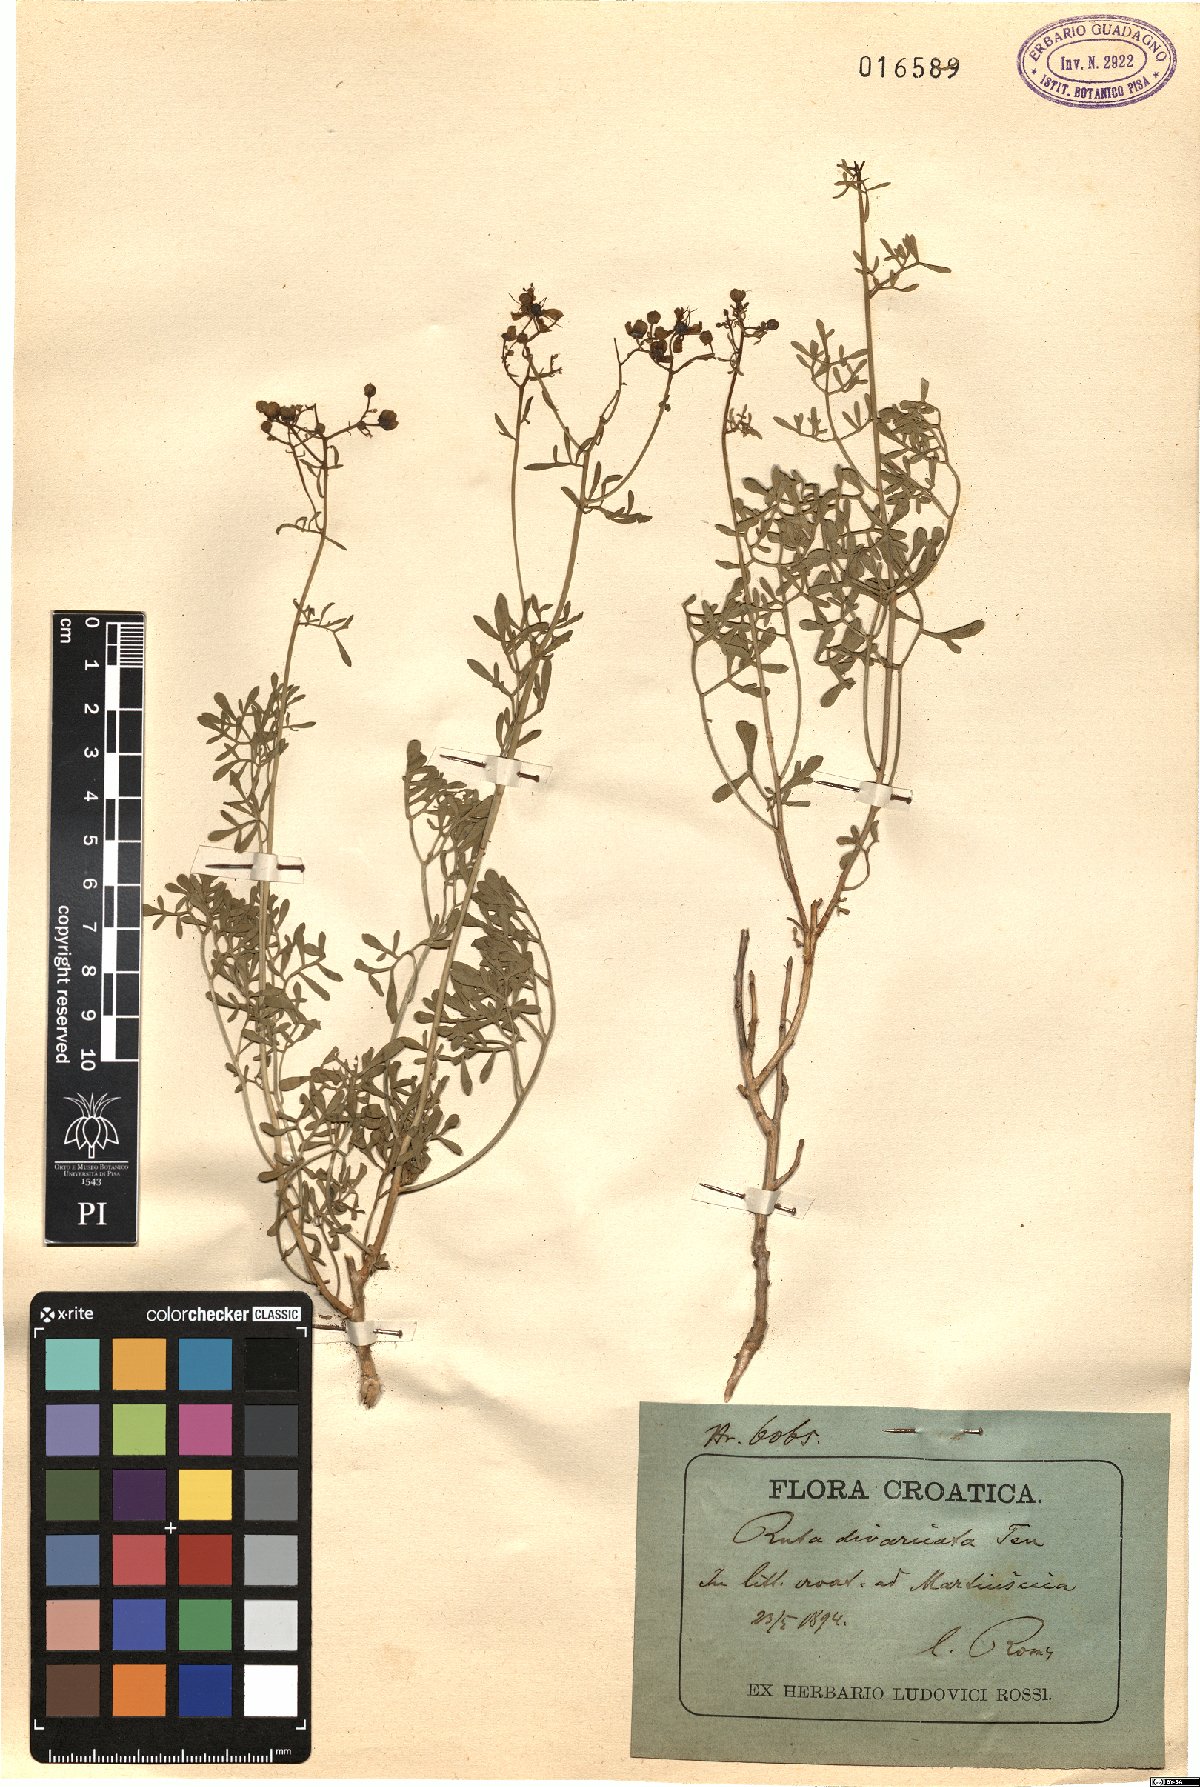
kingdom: Plantae
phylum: Tracheophyta
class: Magnoliopsida
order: Sapindales
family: Rutaceae
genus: Ruta
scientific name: Ruta graveolens
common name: Common rue
